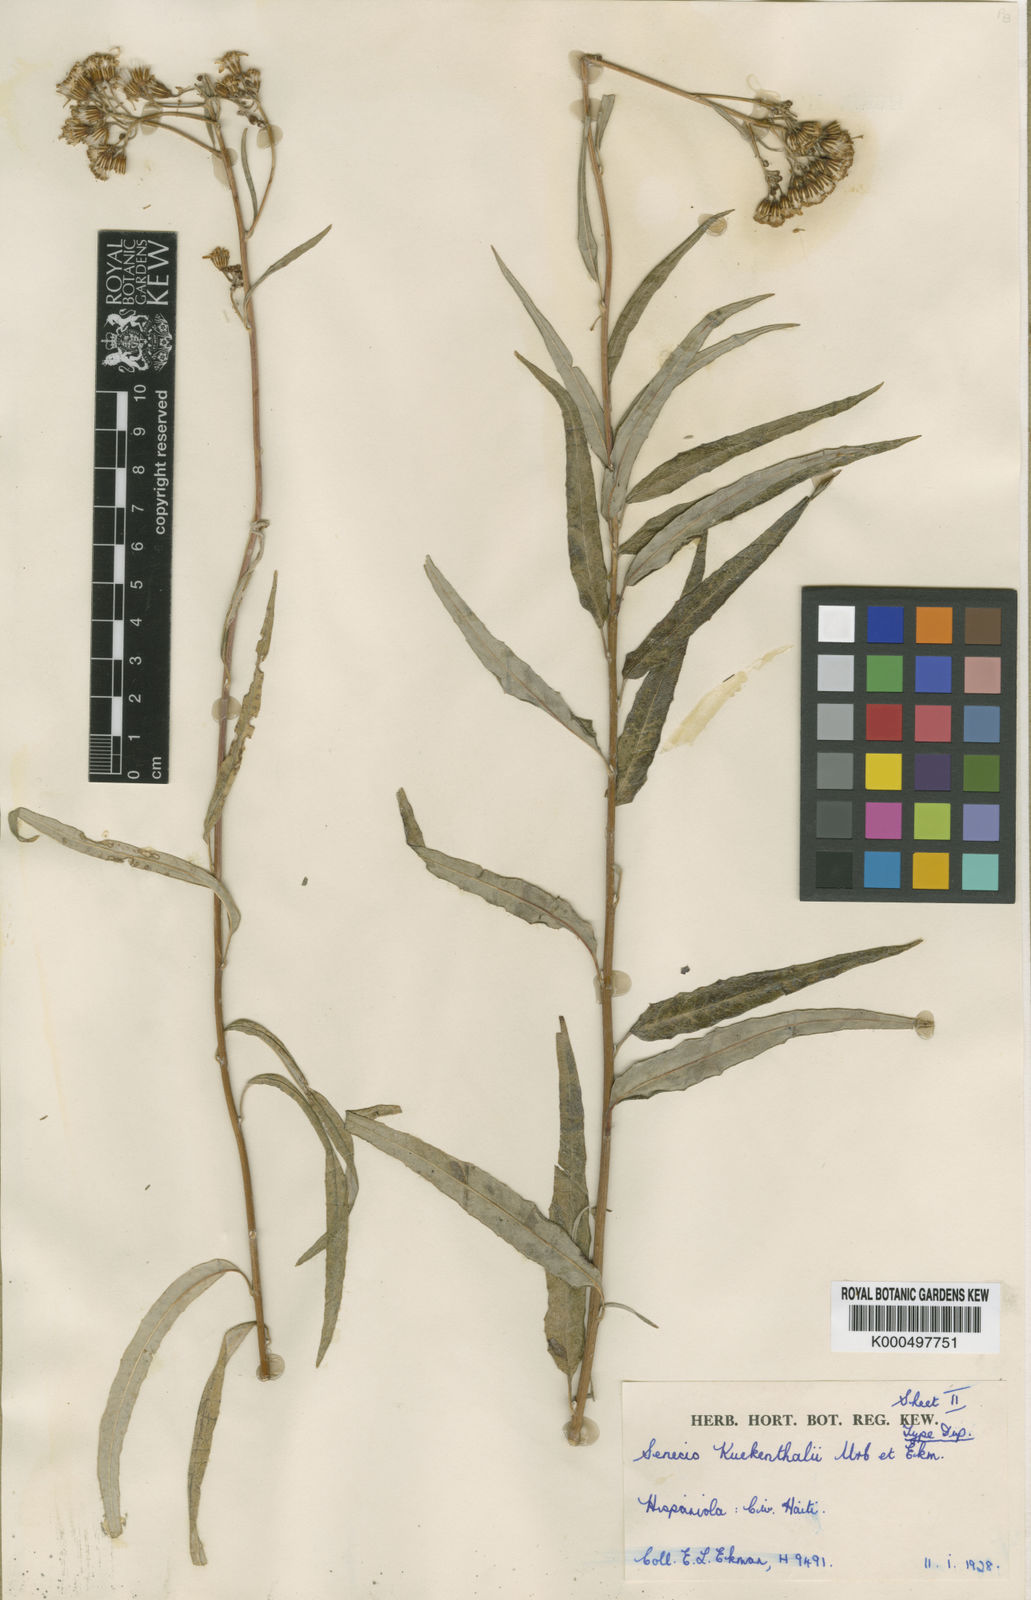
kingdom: Plantae
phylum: Tracheophyta
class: Magnoliopsida
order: Asterales
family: Asteraceae
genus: Elekmania
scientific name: Elekmania kuekenthalii
